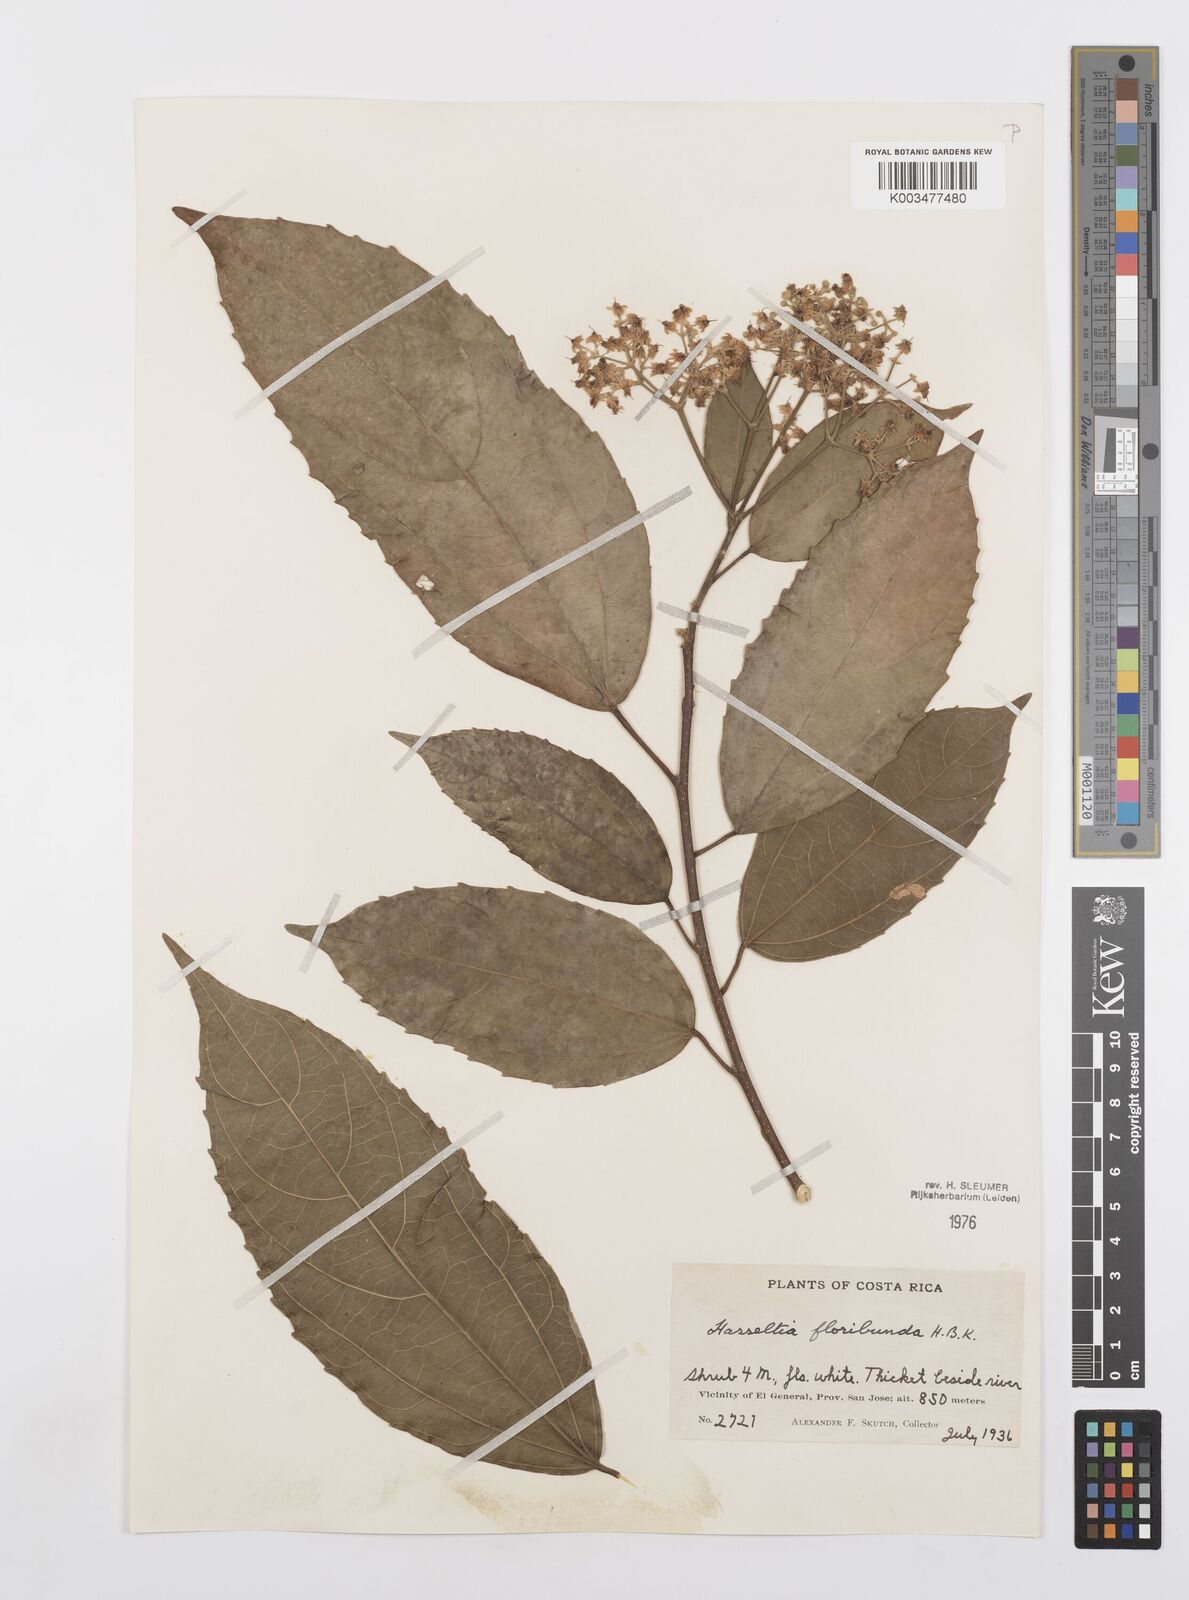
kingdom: Plantae
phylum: Tracheophyta
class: Magnoliopsida
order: Malpighiales
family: Salicaceae
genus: Hasseltia
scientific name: Hasseltia floribunda
